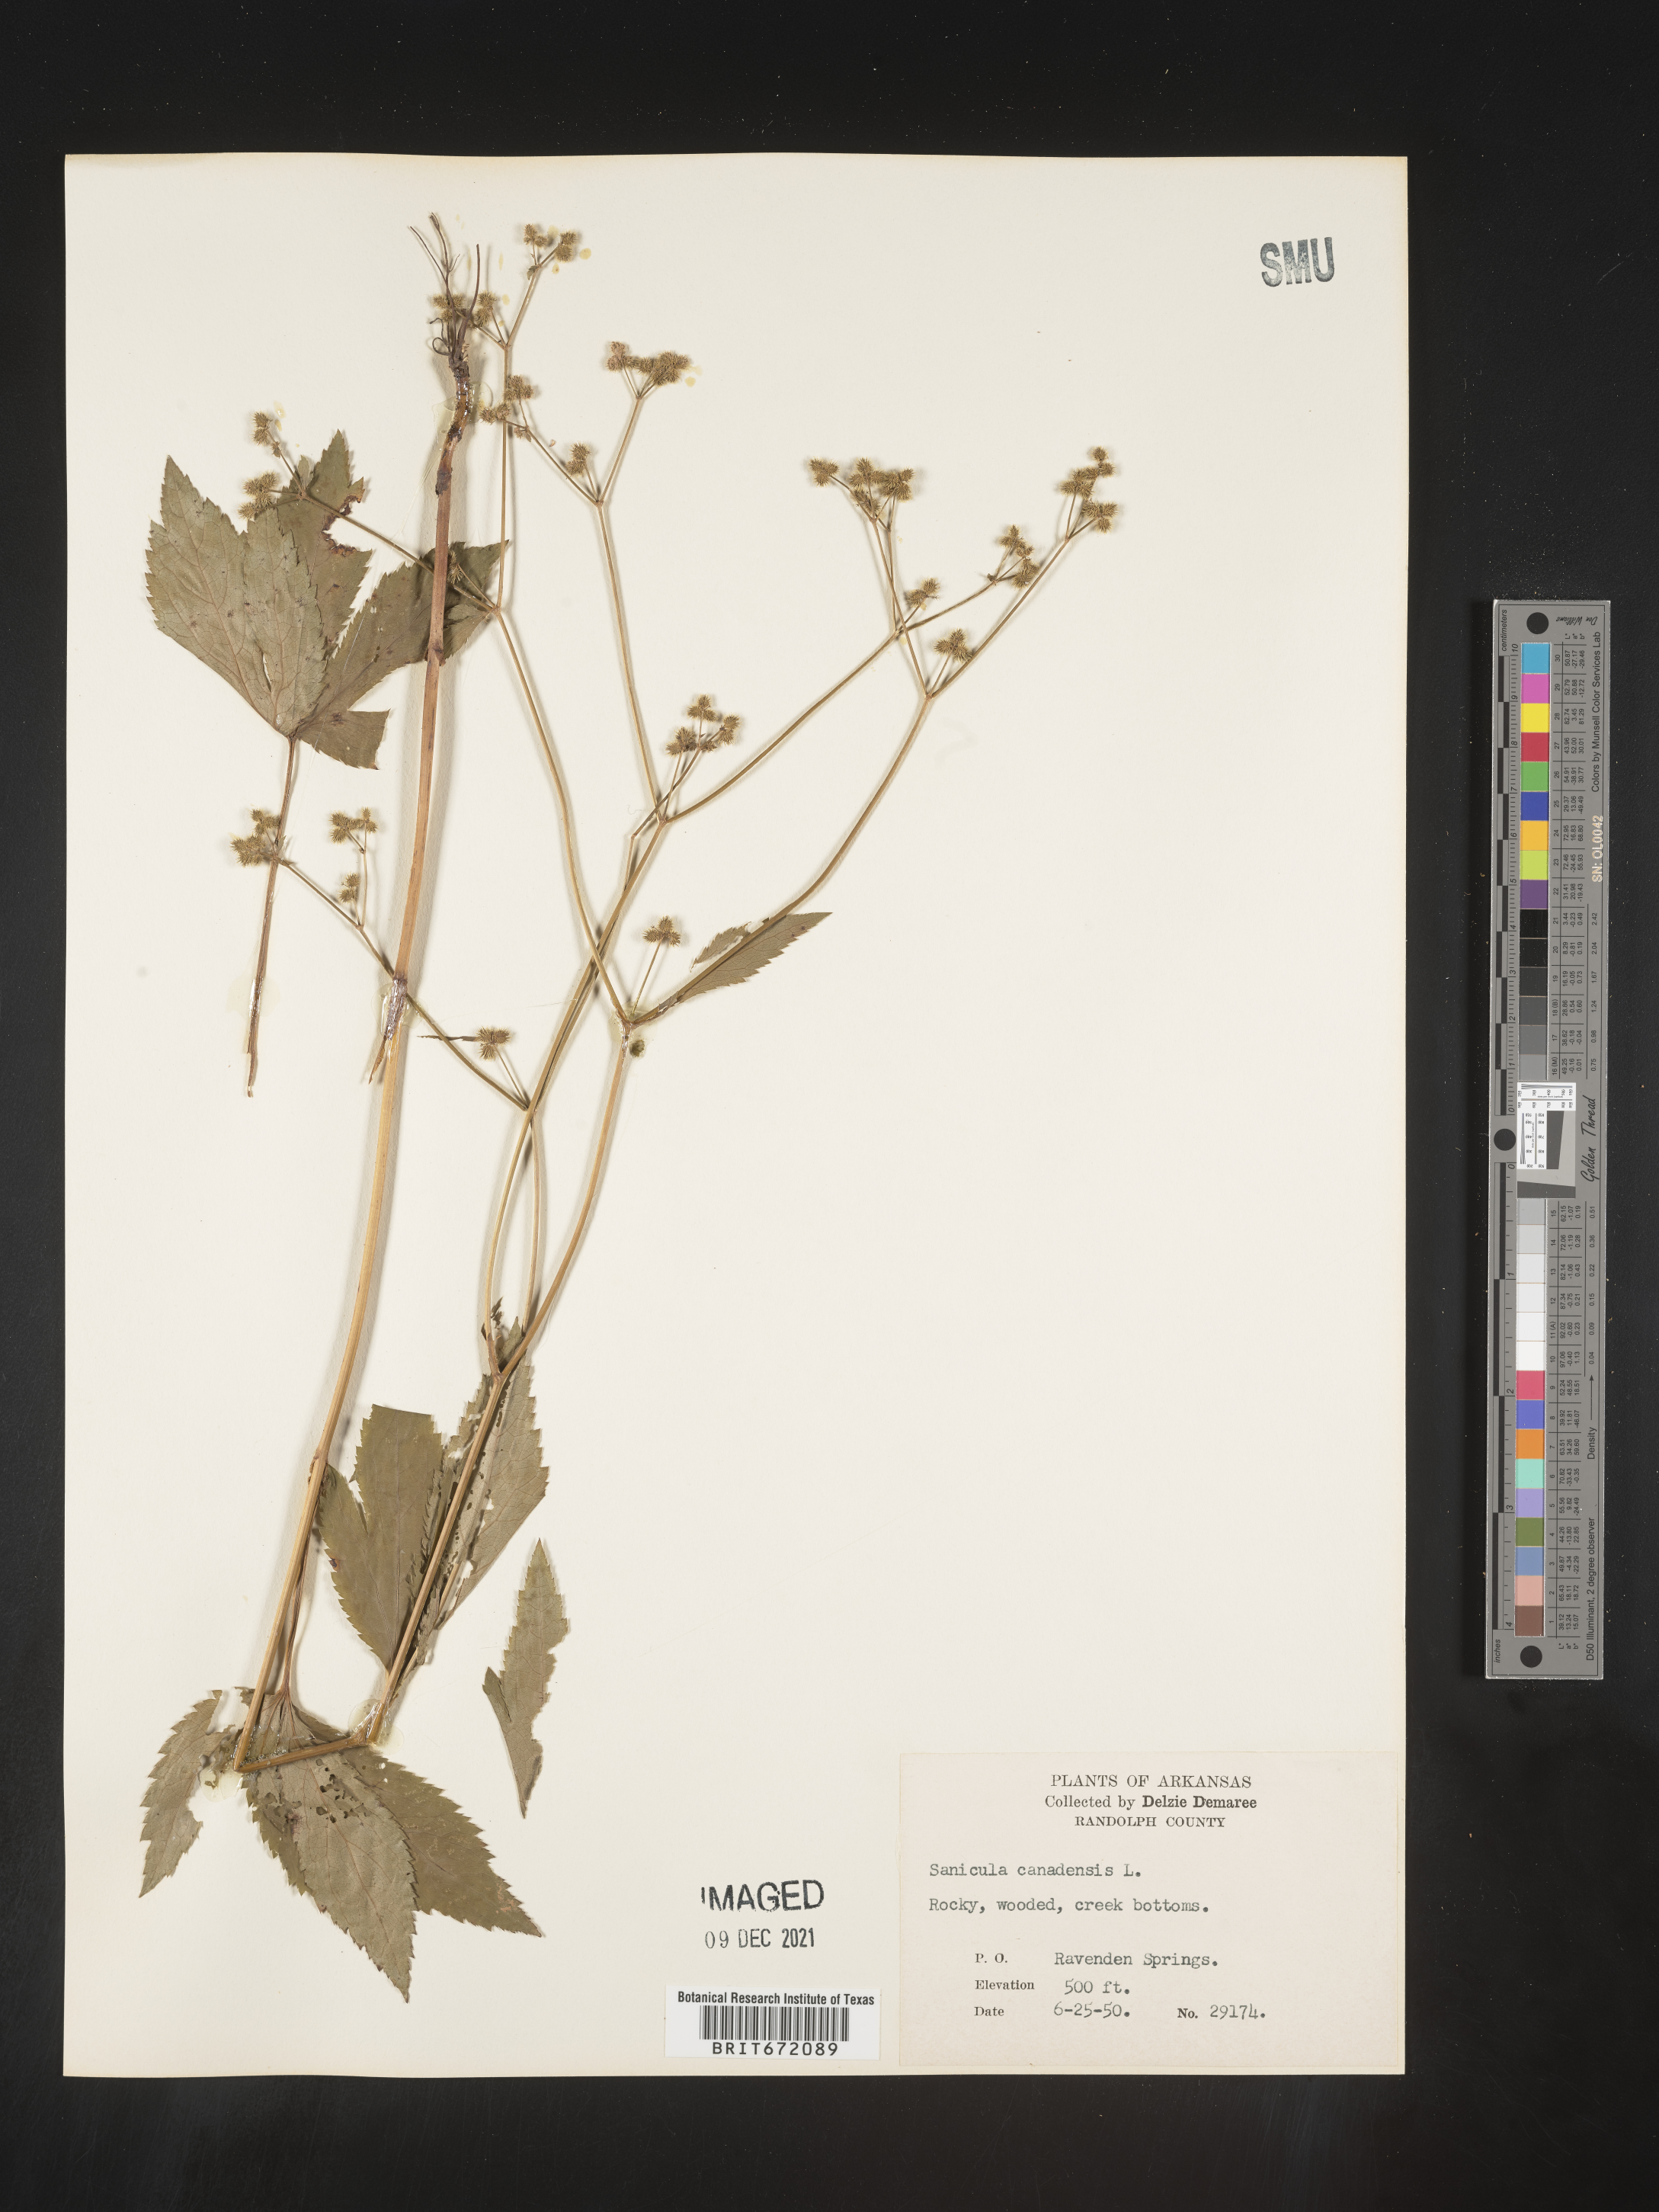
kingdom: Plantae
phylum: Tracheophyta
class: Magnoliopsida
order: Apiales
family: Apiaceae
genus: Sanicula
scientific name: Sanicula canadensis
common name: Canada sanicle
